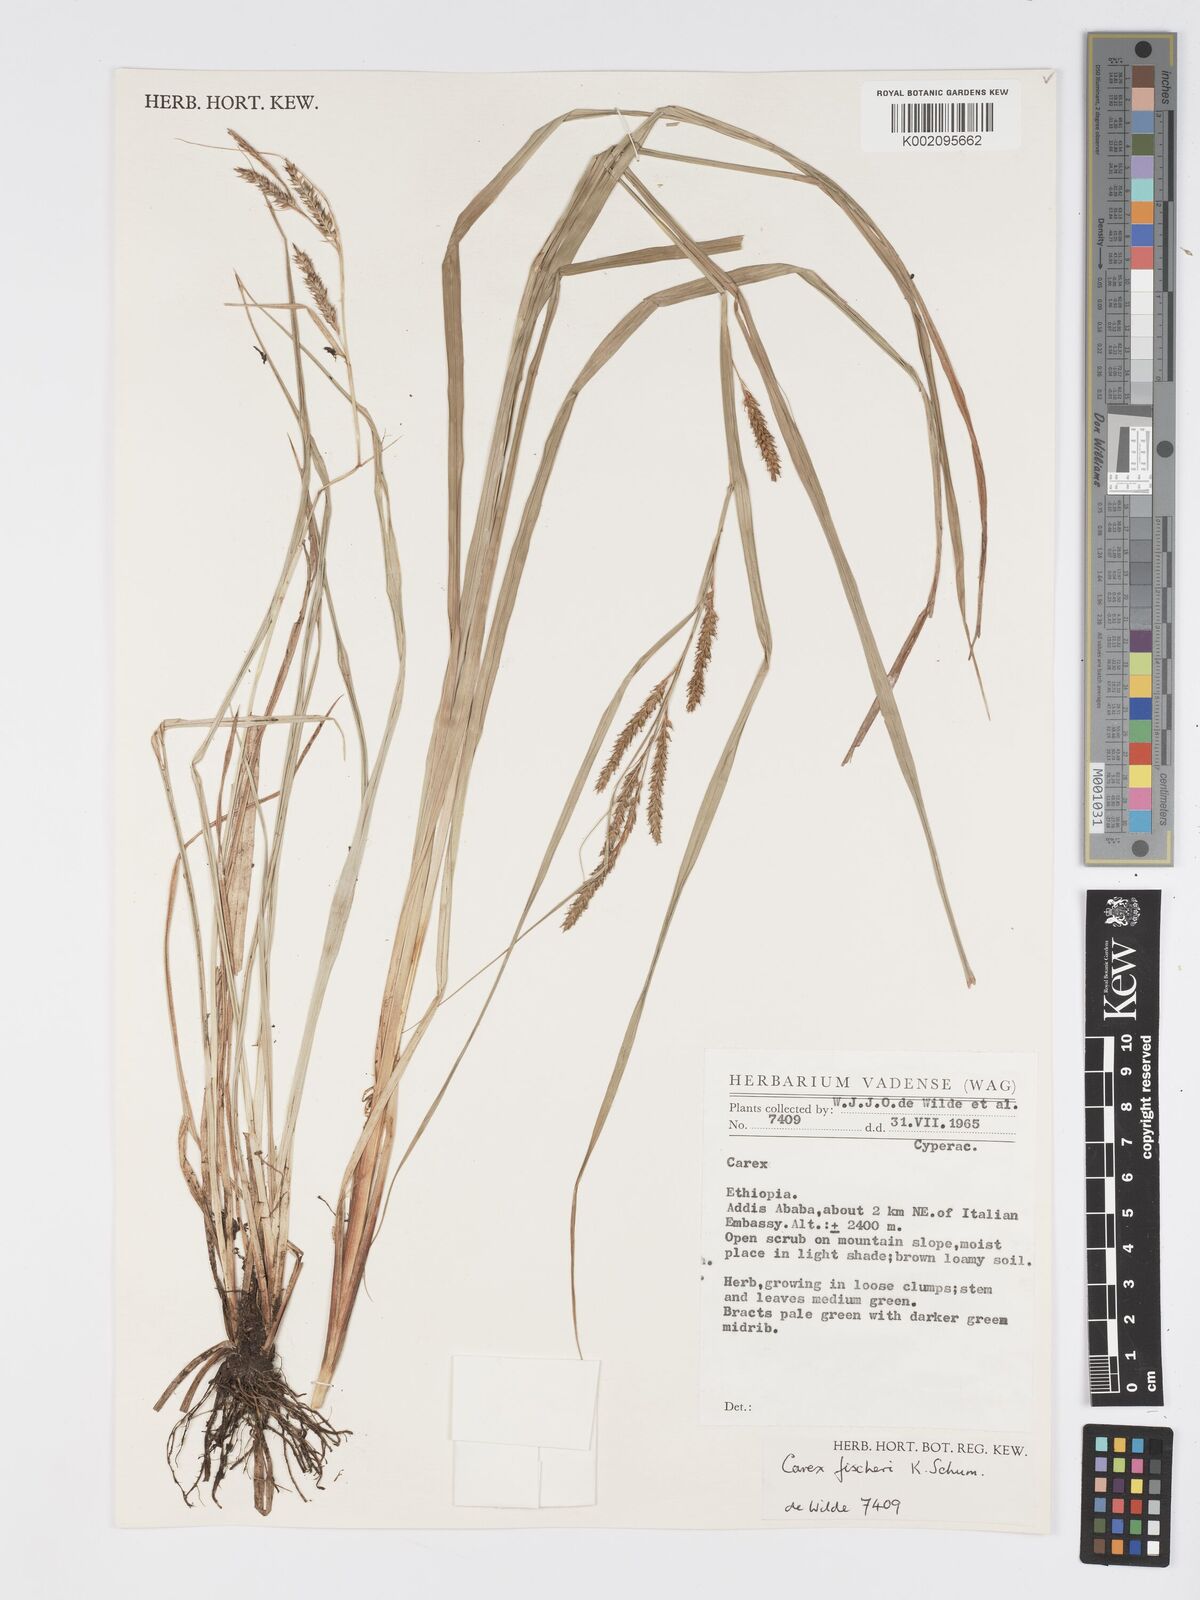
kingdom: Plantae
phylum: Tracheophyta
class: Liliopsida
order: Poales
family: Cyperaceae
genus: Carex
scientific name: Carex fischeri
